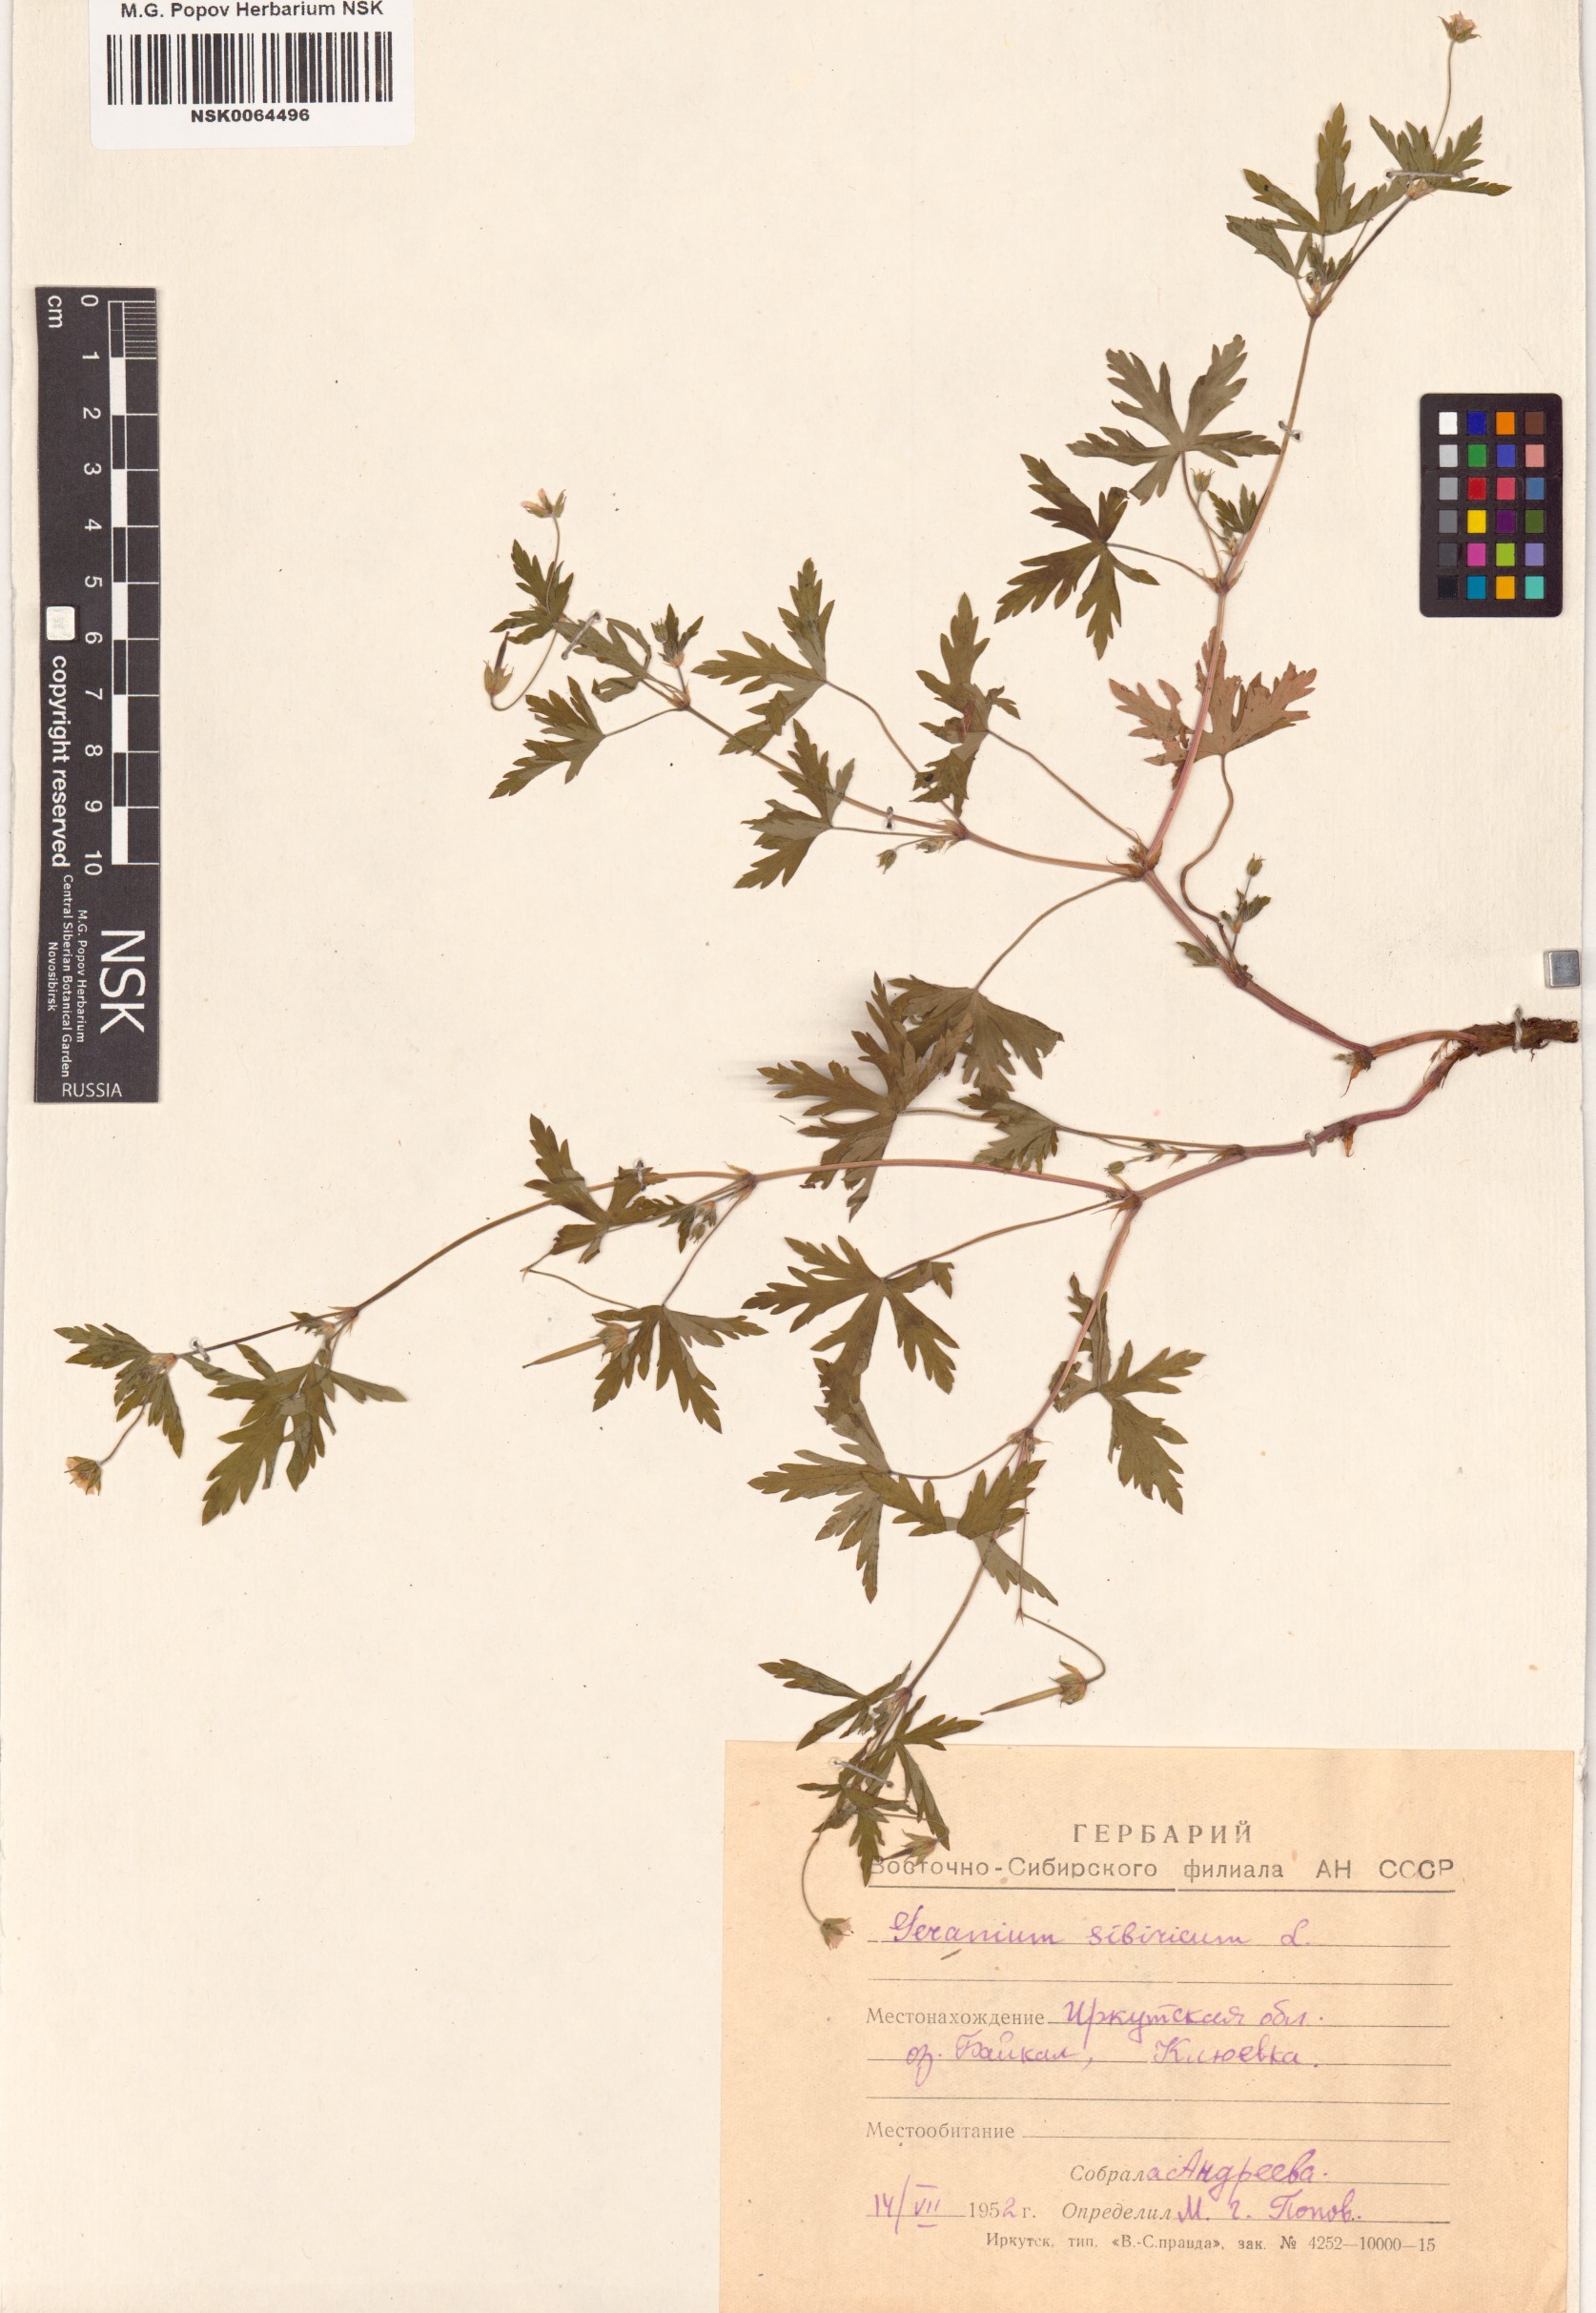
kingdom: Plantae
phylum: Tracheophyta
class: Magnoliopsida
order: Geraniales
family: Geraniaceae
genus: Geranium
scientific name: Geranium sibiricum
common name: Siberian crane's-bill
